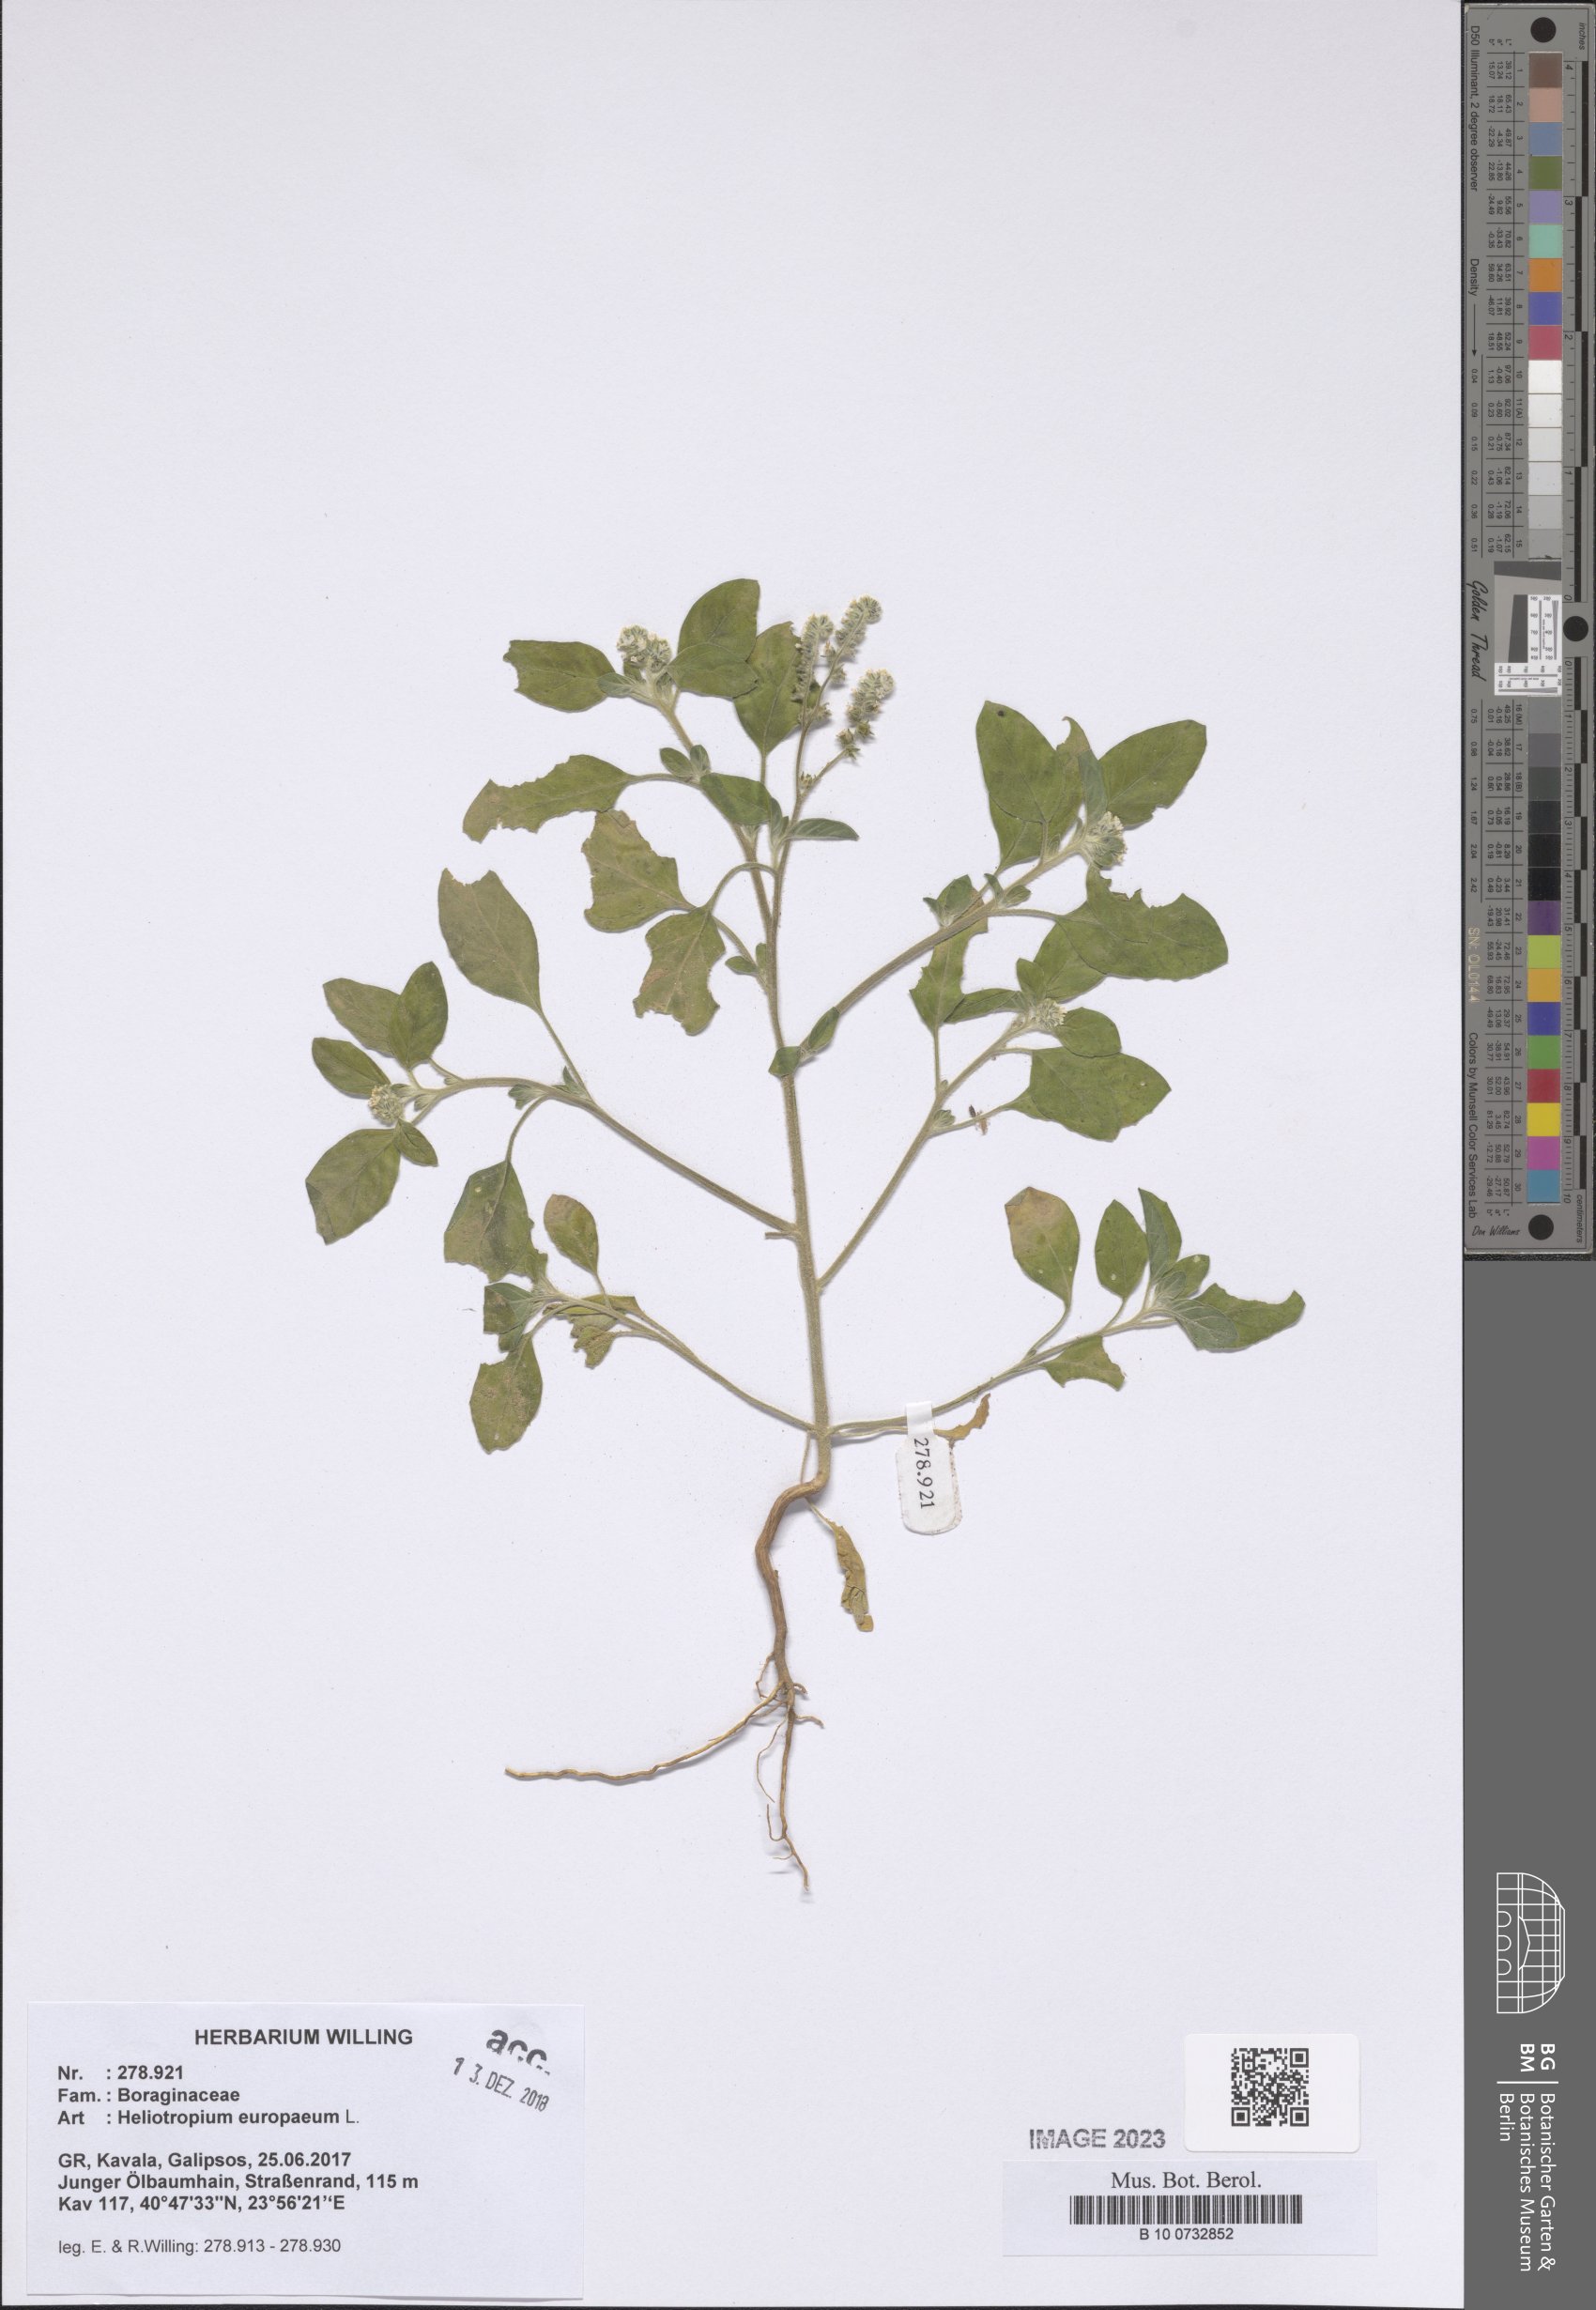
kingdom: Plantae
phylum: Tracheophyta
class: Magnoliopsida
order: Boraginales
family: Heliotropiaceae
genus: Heliotropium
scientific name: Heliotropium europaeum
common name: European heliotrope
